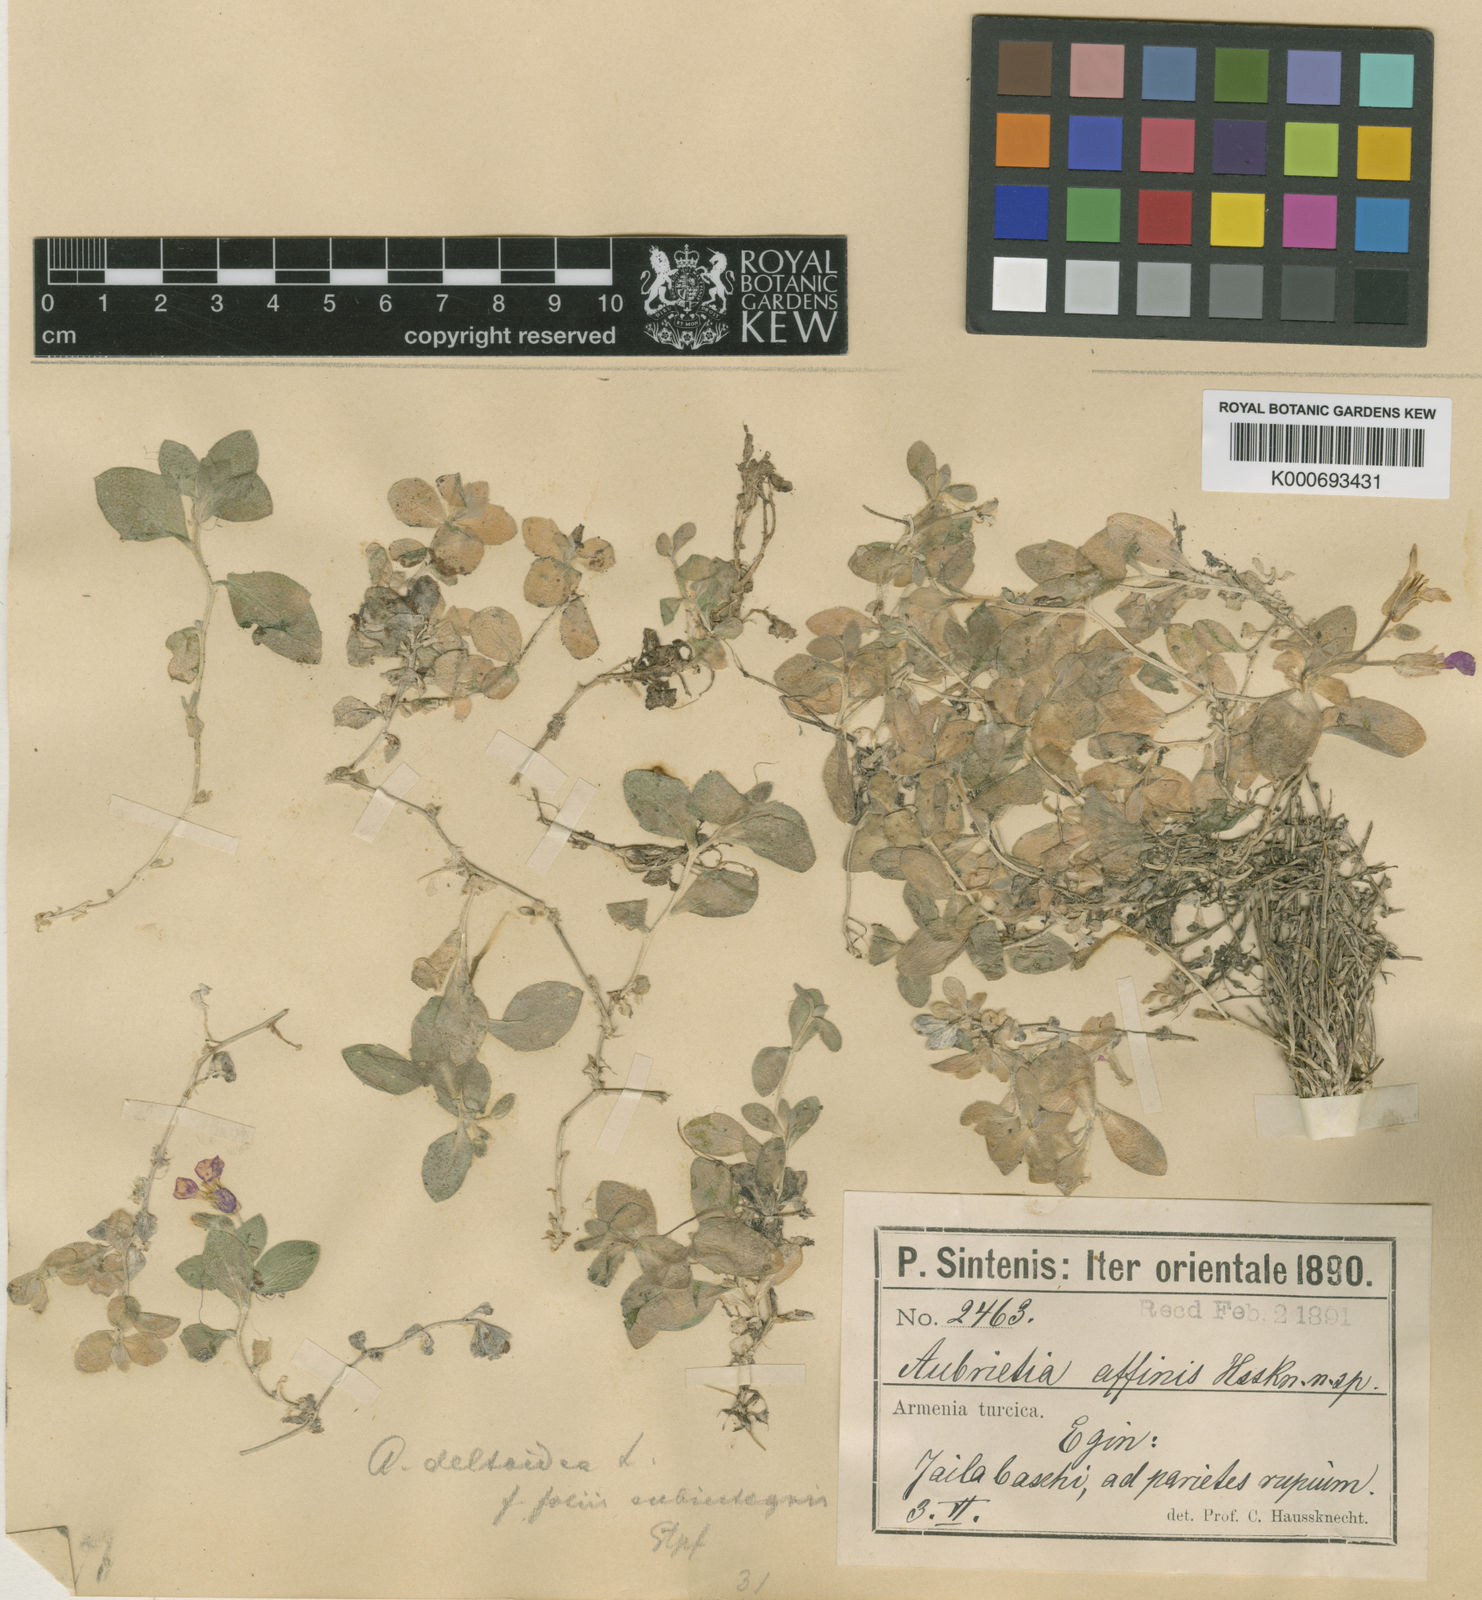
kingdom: Plantae
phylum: Tracheophyta
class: Magnoliopsida
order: Brassicales
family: Brassicaceae
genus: Aubrieta
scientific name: Aubrieta deltoidea
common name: Aubretia
